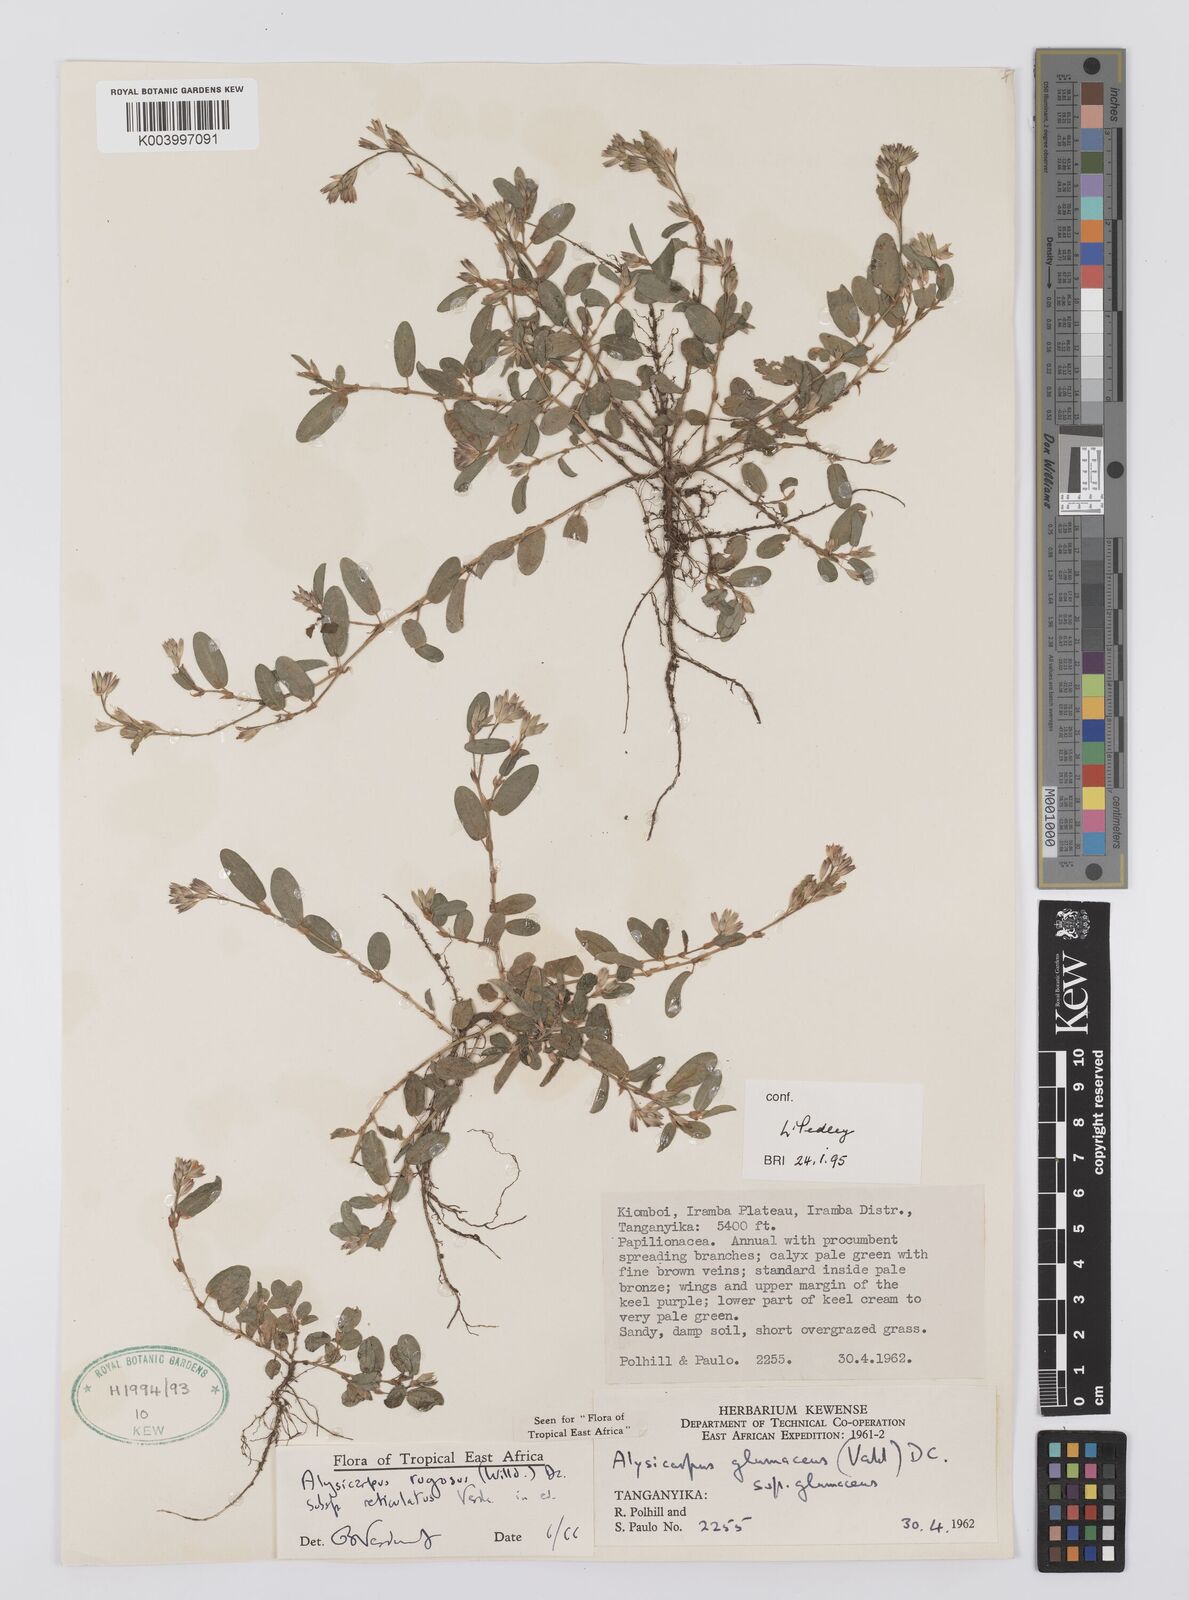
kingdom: Plantae
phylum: Tracheophyta
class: Magnoliopsida
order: Fabales
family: Fabaceae
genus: Alysicarpus
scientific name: Alysicarpus rugosus
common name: Red moneywort
